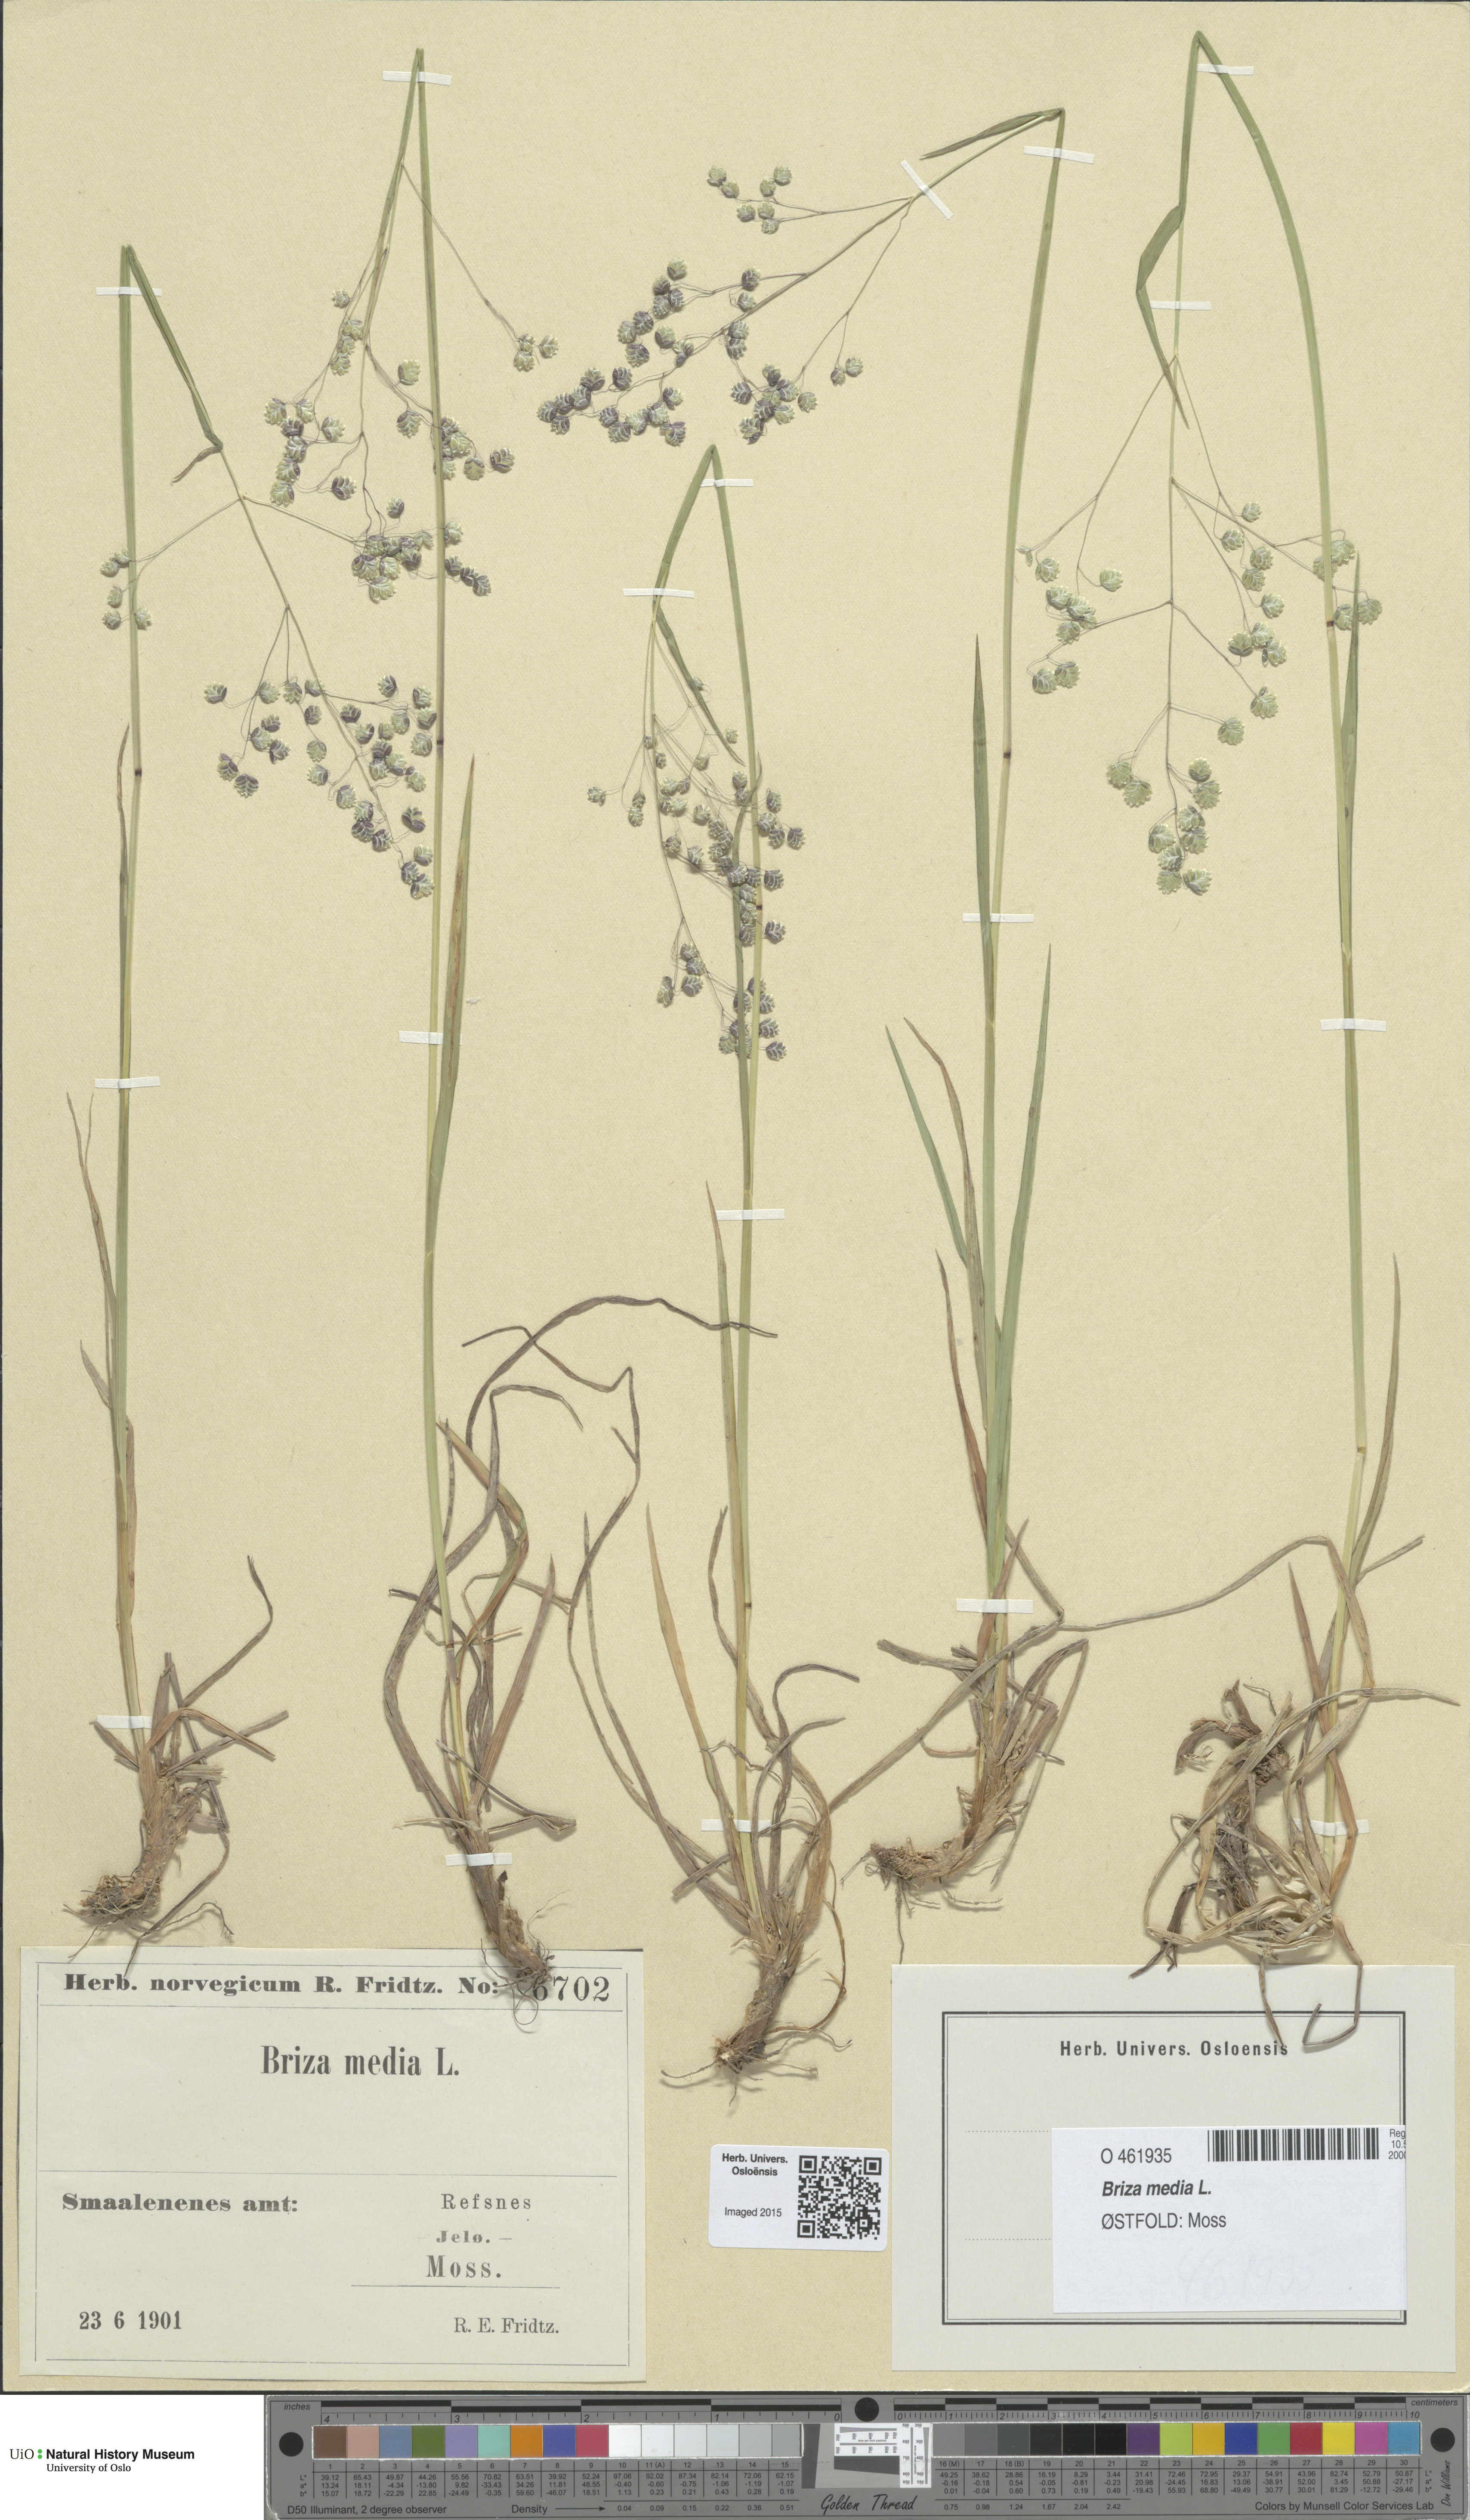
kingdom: Plantae
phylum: Tracheophyta
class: Liliopsida
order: Poales
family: Poaceae
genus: Briza
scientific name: Briza media
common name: Quaking grass
